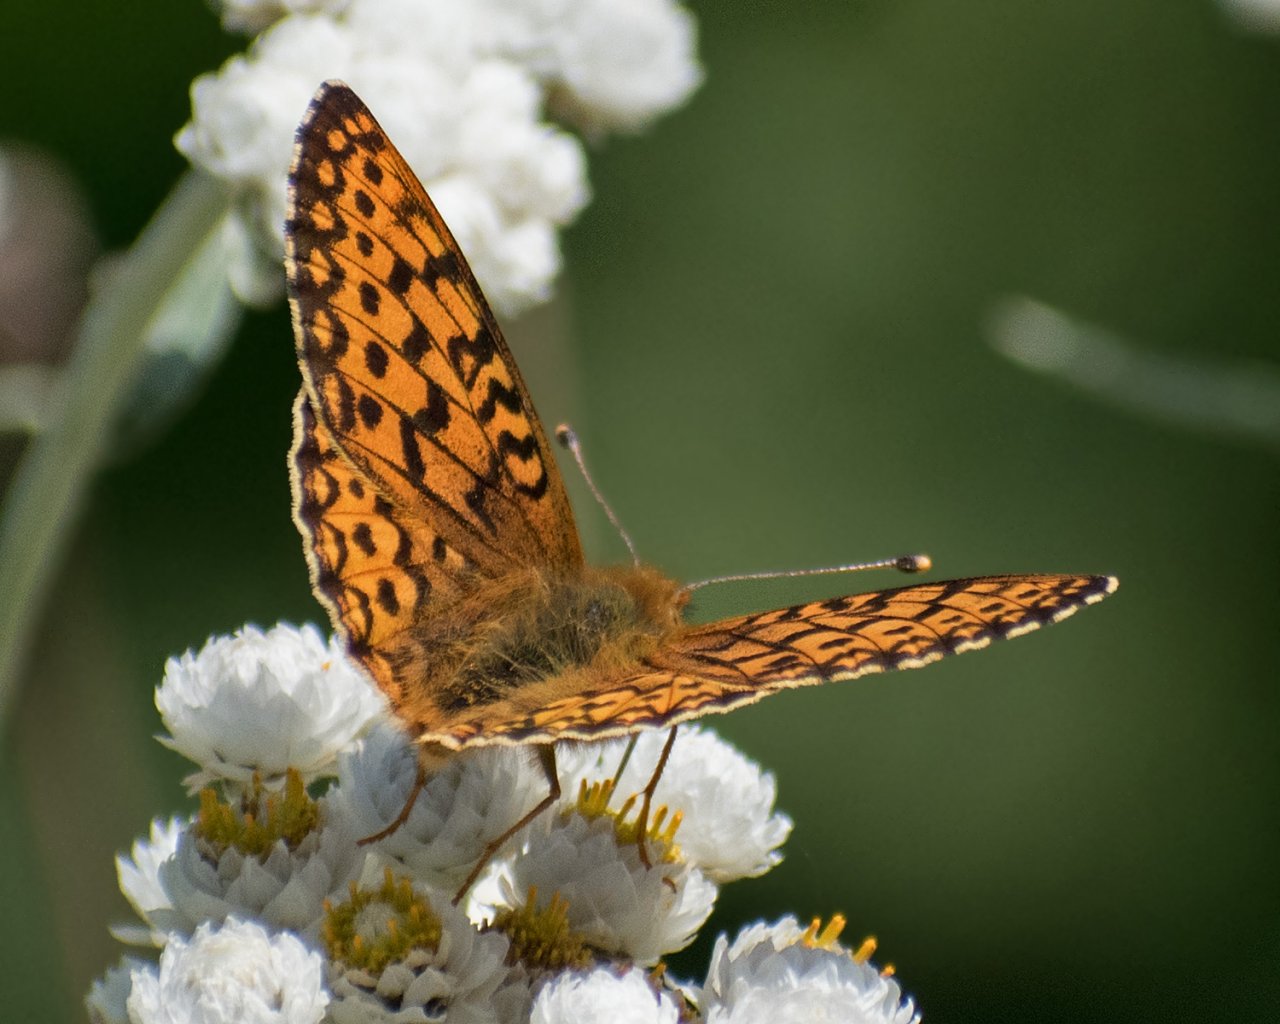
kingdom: Animalia
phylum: Arthropoda
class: Insecta
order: Lepidoptera
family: Nymphalidae
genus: Speyeria
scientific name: Speyeria mormonia
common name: Mormon Fritillary
